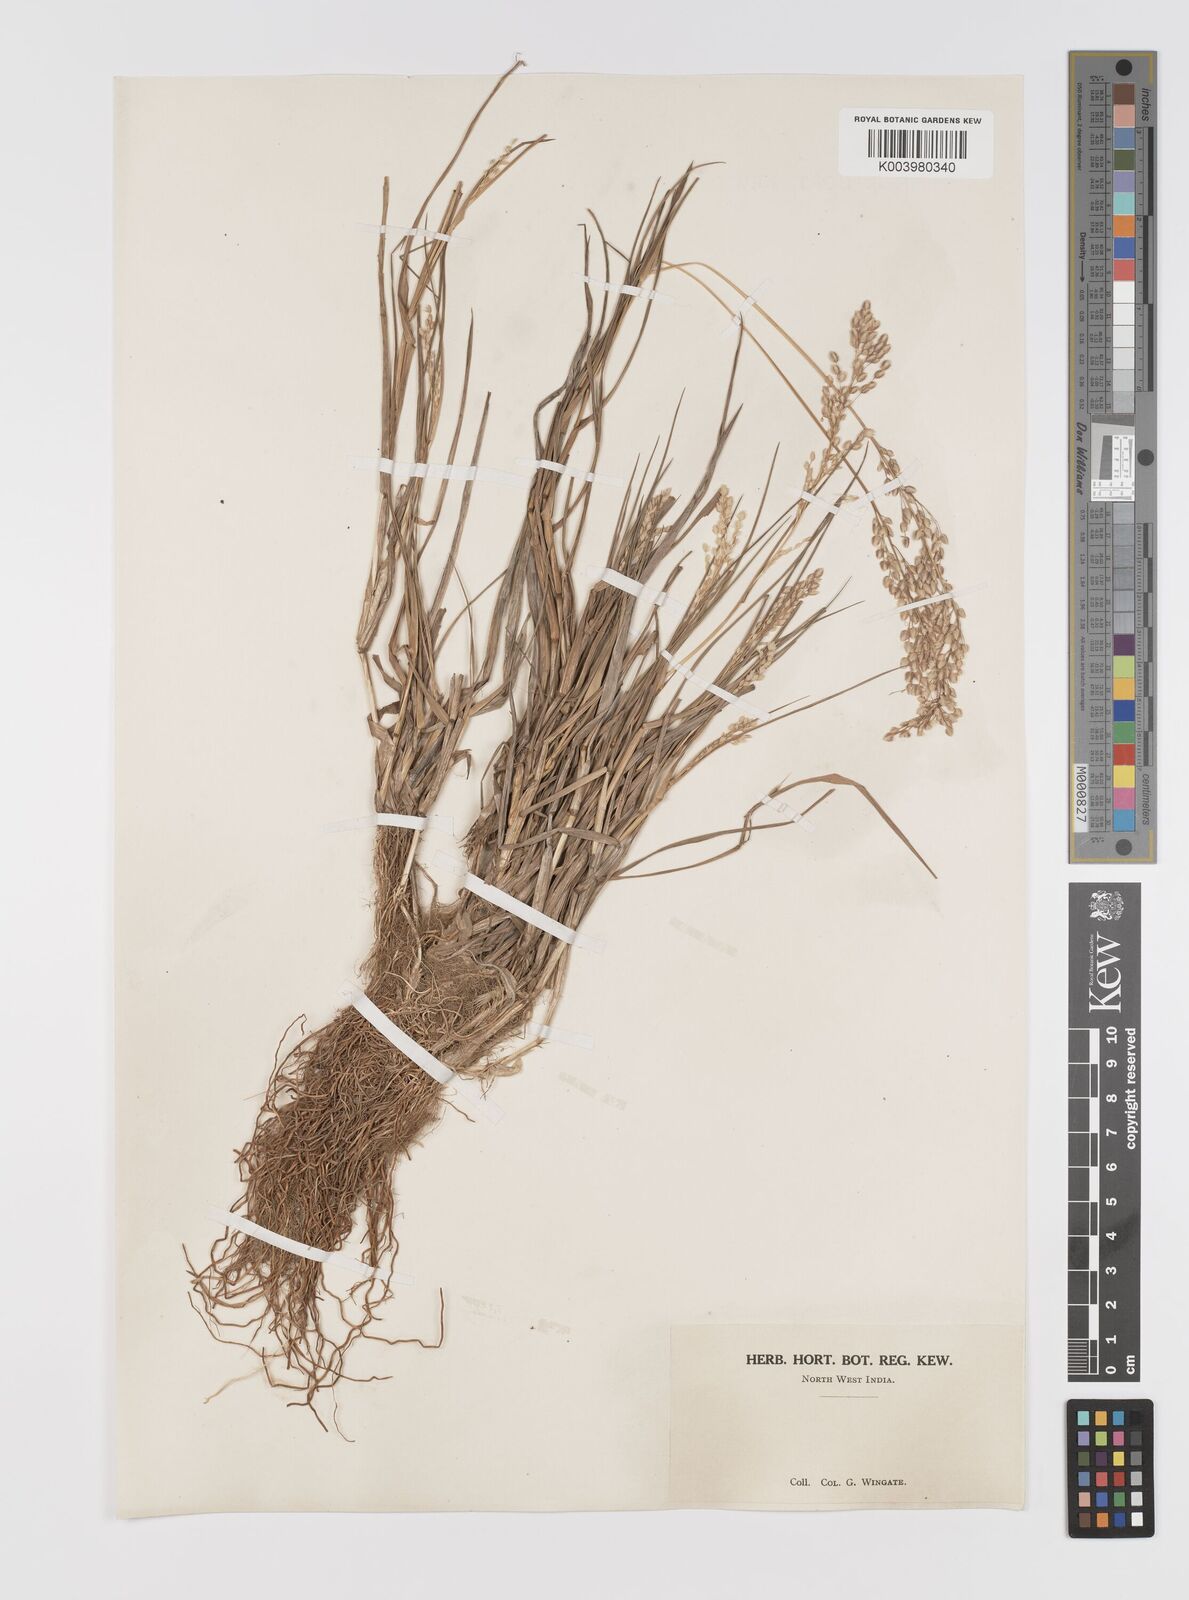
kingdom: Plantae
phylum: Tracheophyta
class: Liliopsida
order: Poales
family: Poaceae
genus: Eragrostis
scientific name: Eragrostis unioloides
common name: Chinese lovegrass
